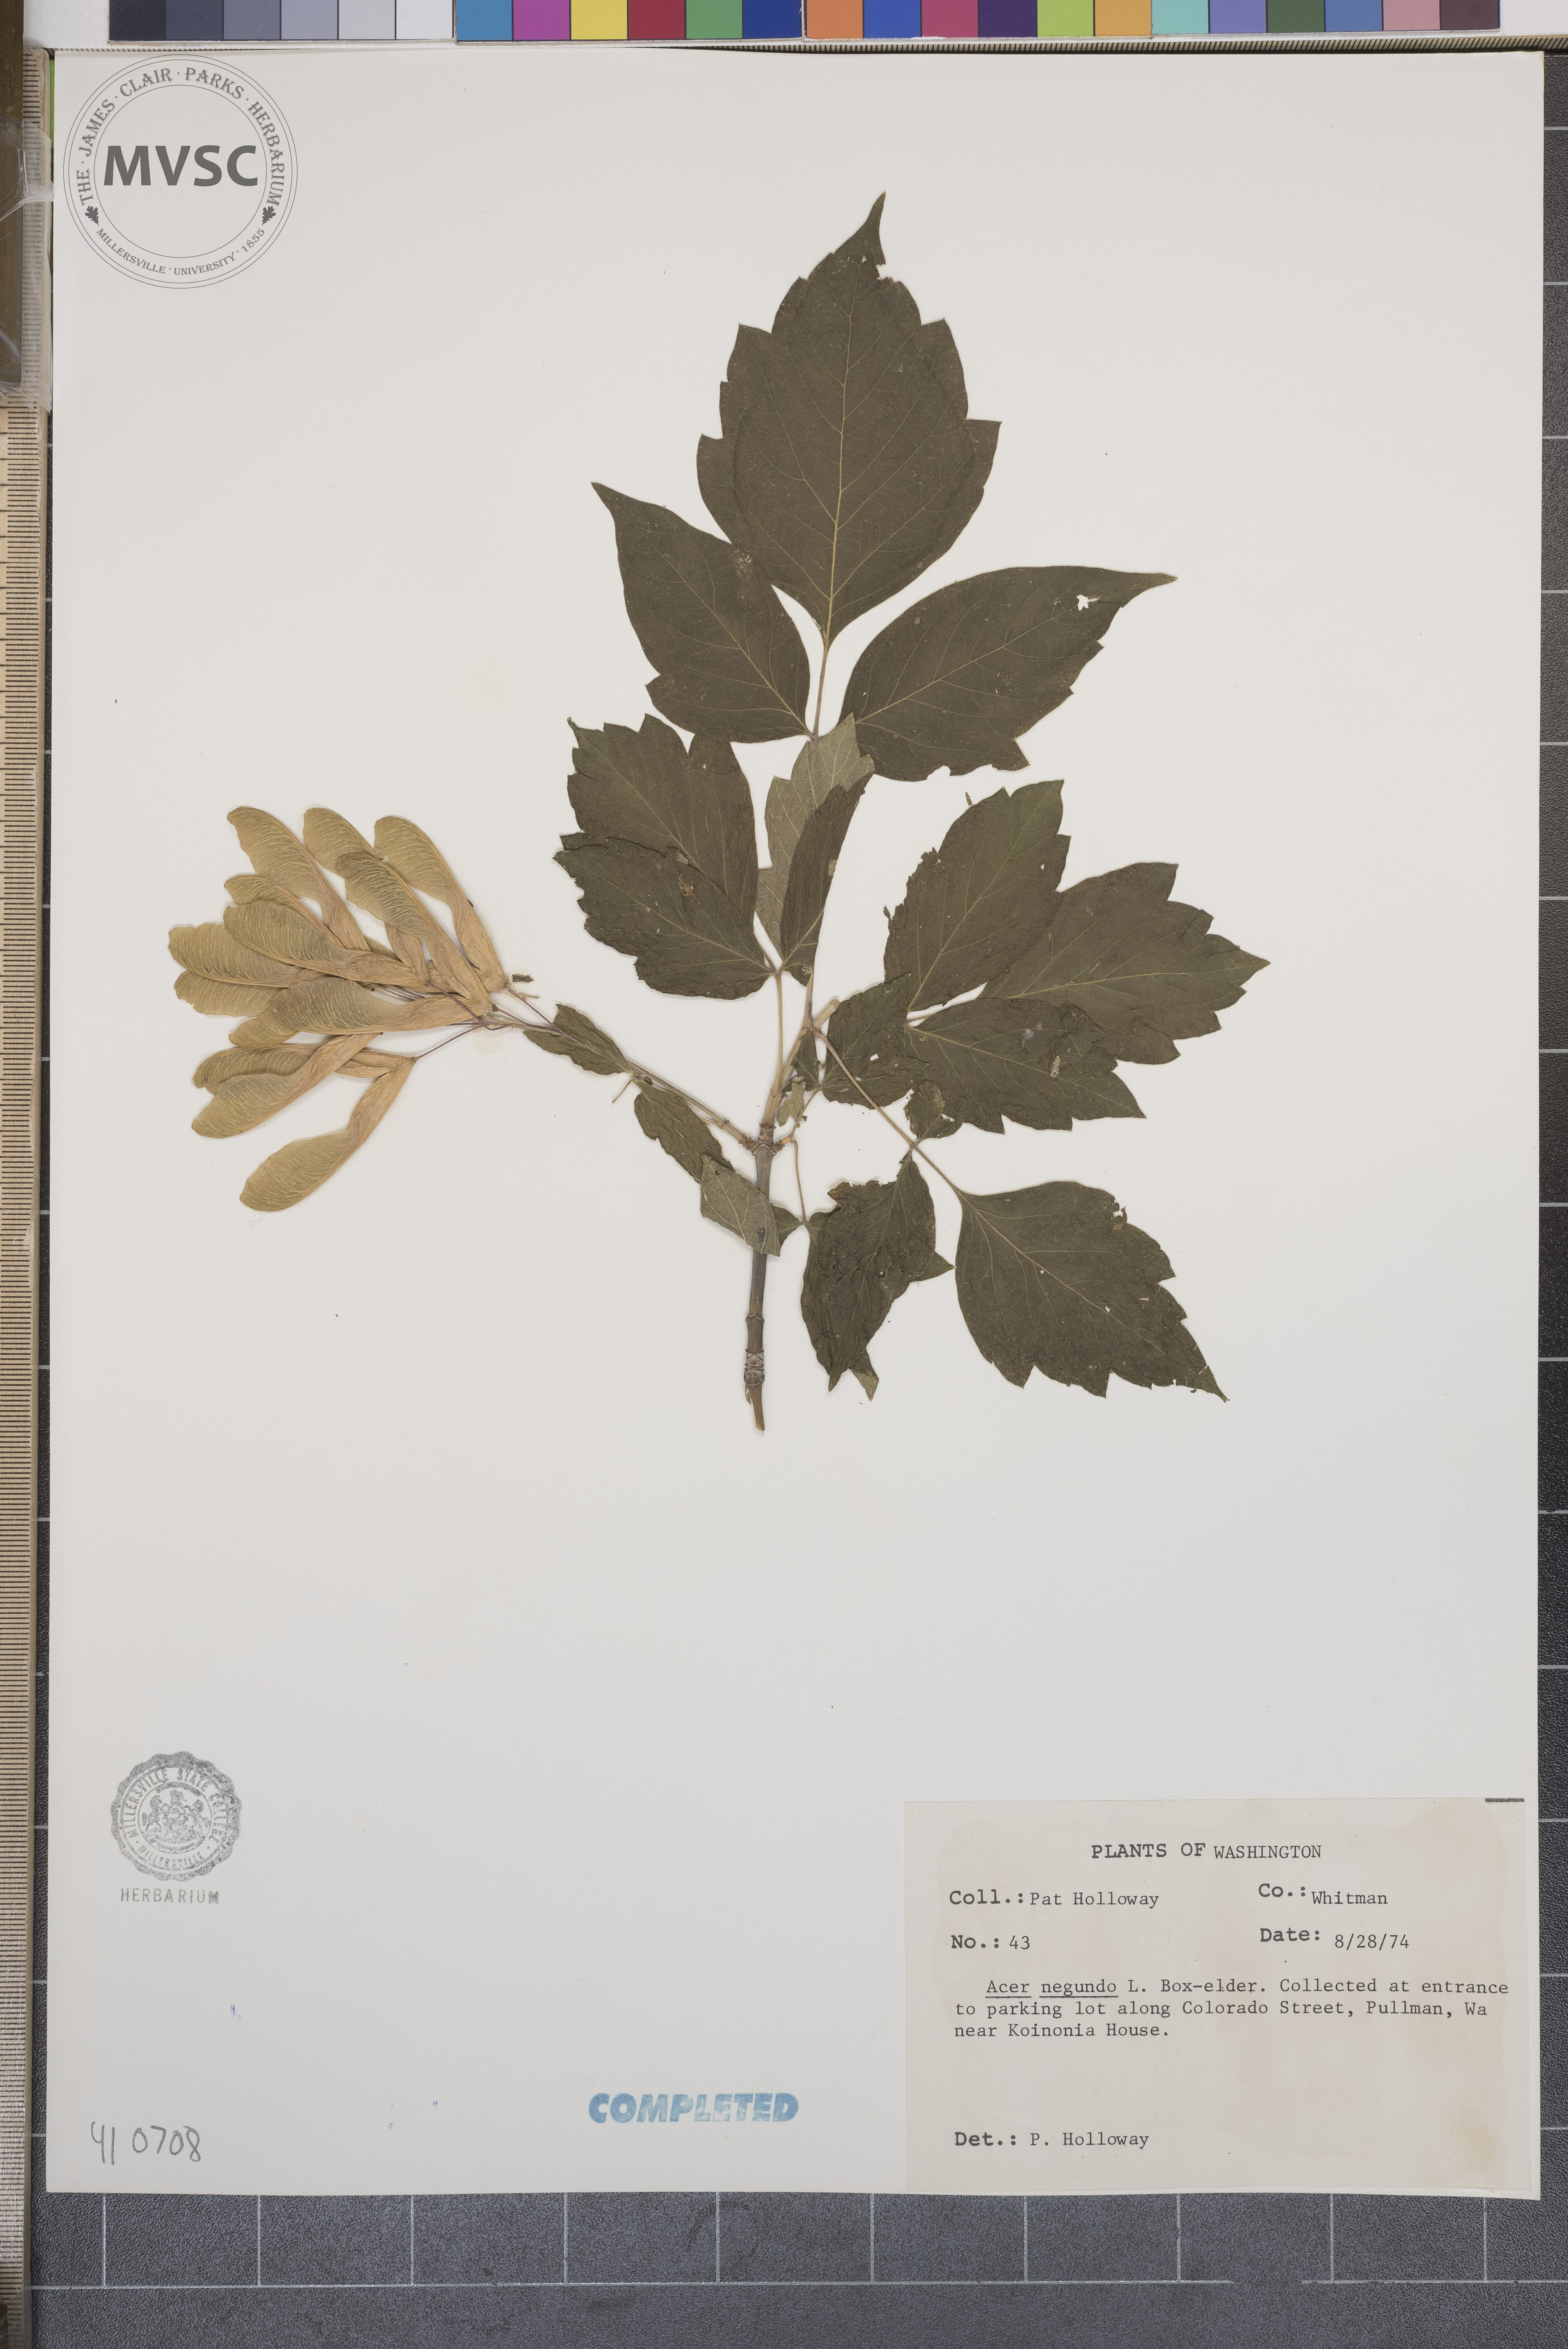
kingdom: Plantae
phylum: Tracheophyta
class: Magnoliopsida
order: Sapindales
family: Sapindaceae
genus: Acer
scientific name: Acer negundo
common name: Ashleaf maple
